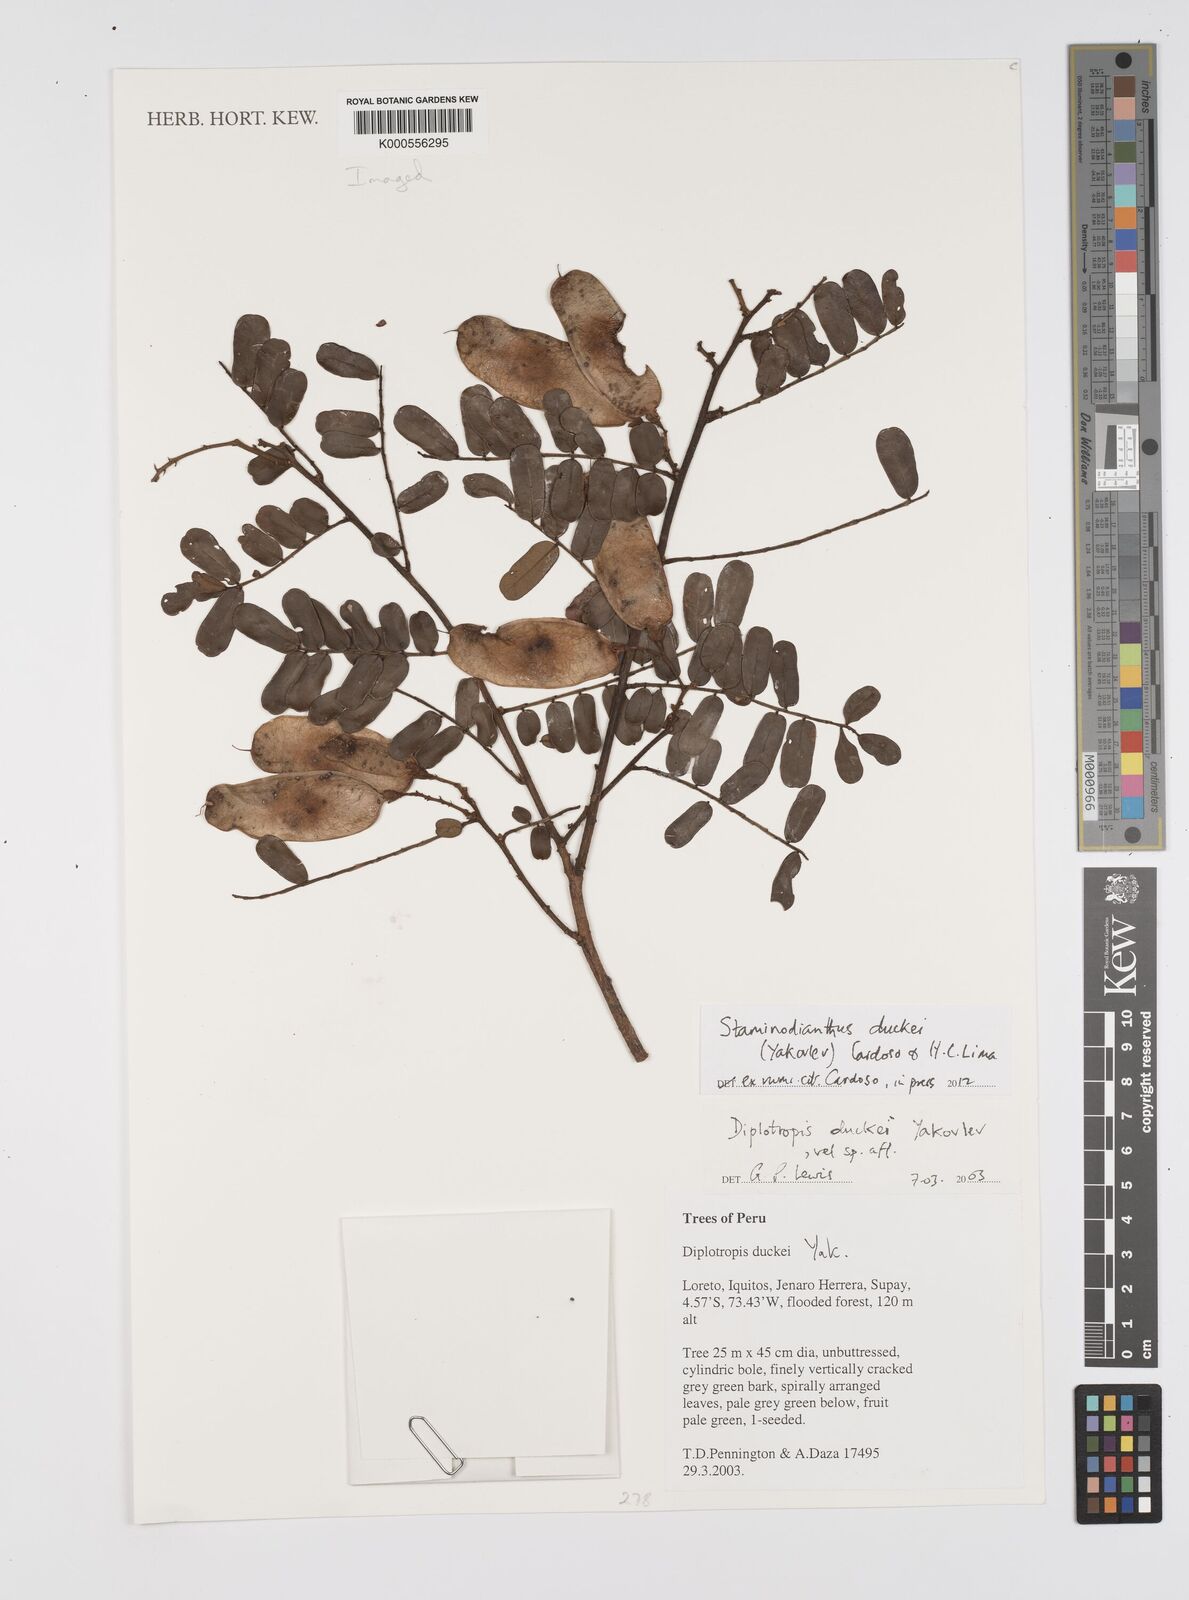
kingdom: Plantae
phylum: Tracheophyta
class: Magnoliopsida
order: Fabales
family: Fabaceae
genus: Diplotropis
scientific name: Diplotropis
